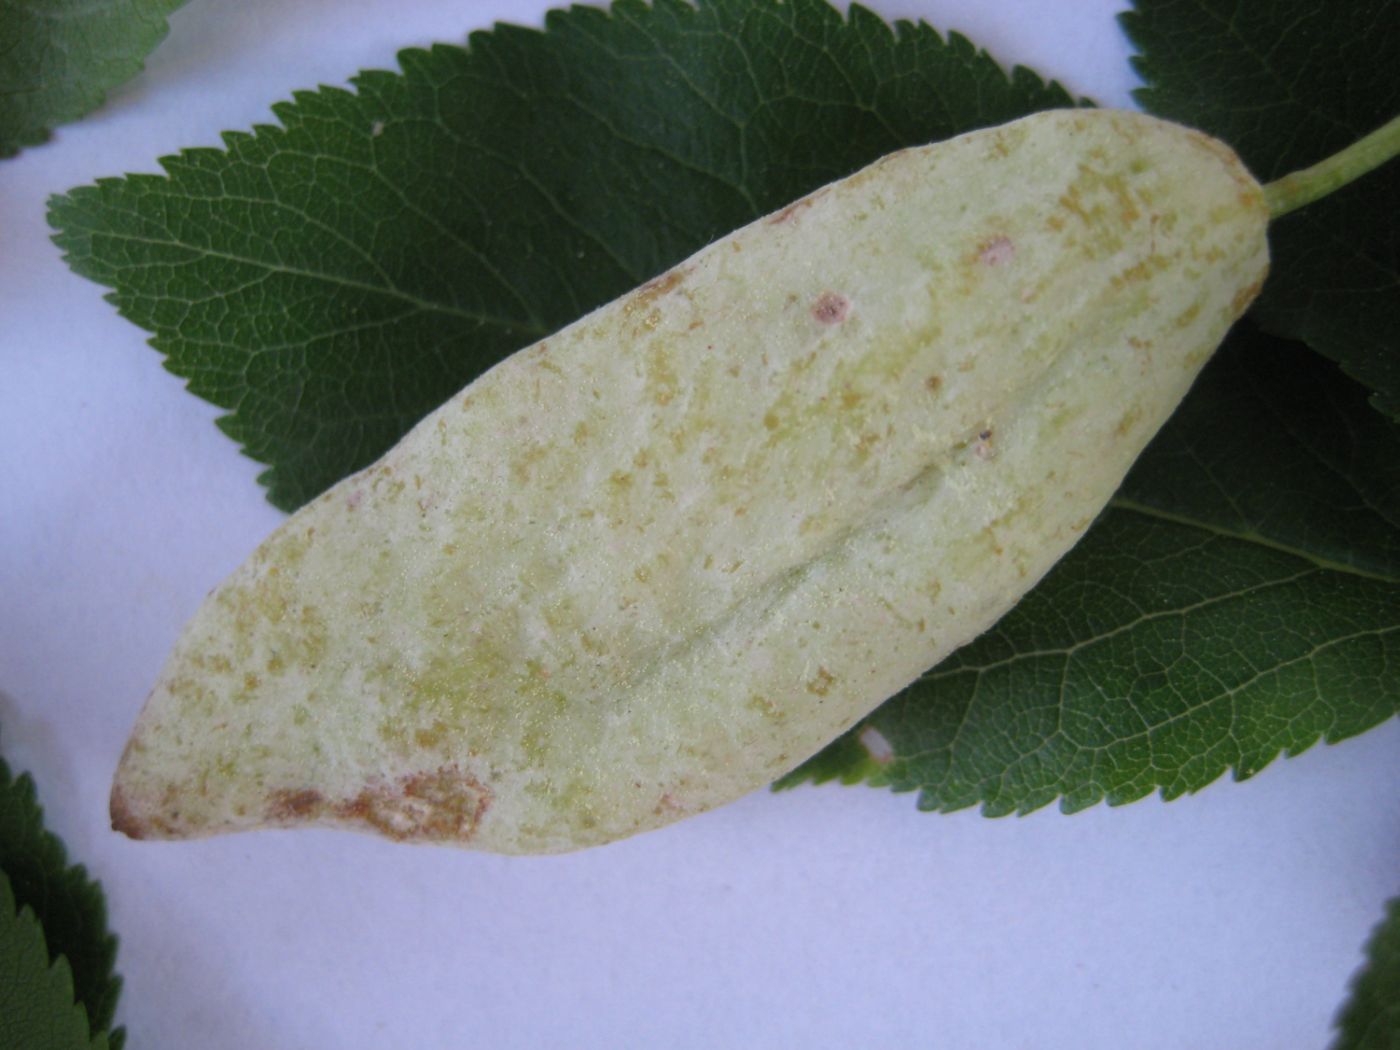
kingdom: Fungi
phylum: Ascomycota
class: Taphrinomycetes
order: Taphrinales
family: Taphrinaceae
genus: Taphrina
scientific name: Taphrina pruni
